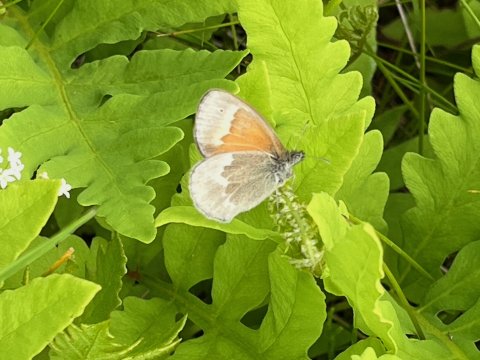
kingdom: Animalia
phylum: Arthropoda
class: Insecta
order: Lepidoptera
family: Nymphalidae
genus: Coenonympha
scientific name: Coenonympha tullia
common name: Large Heath
